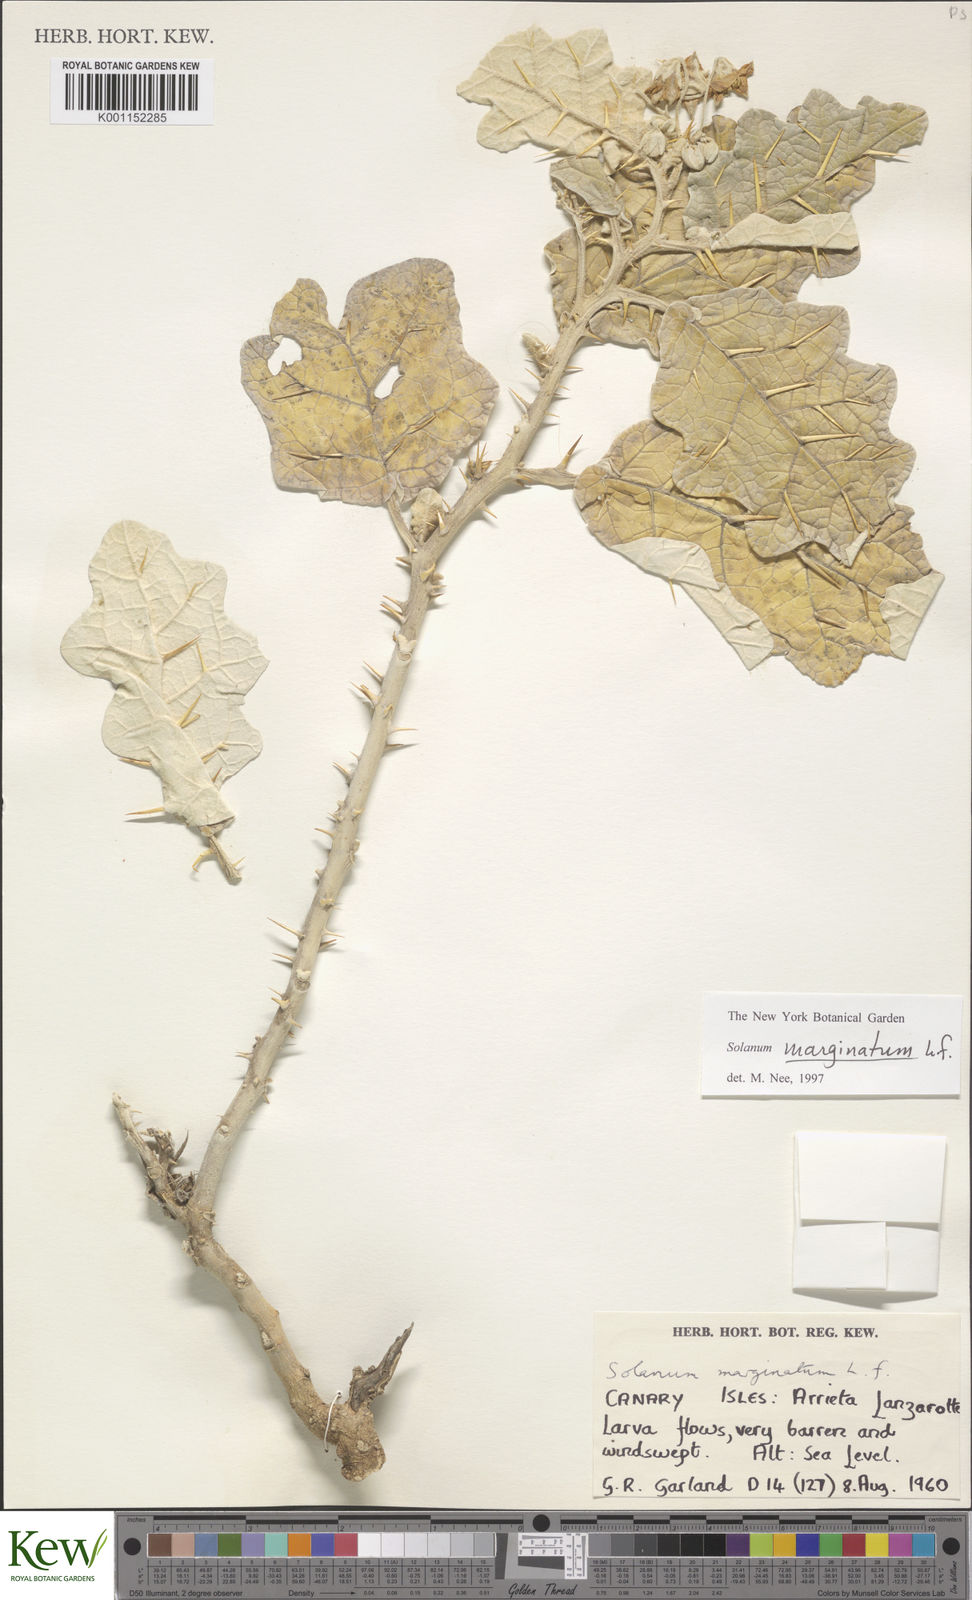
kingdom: Plantae
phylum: Tracheophyta
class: Magnoliopsida
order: Solanales
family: Solanaceae
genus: Solanum
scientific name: Solanum marginatum
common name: Purple african nightshade
